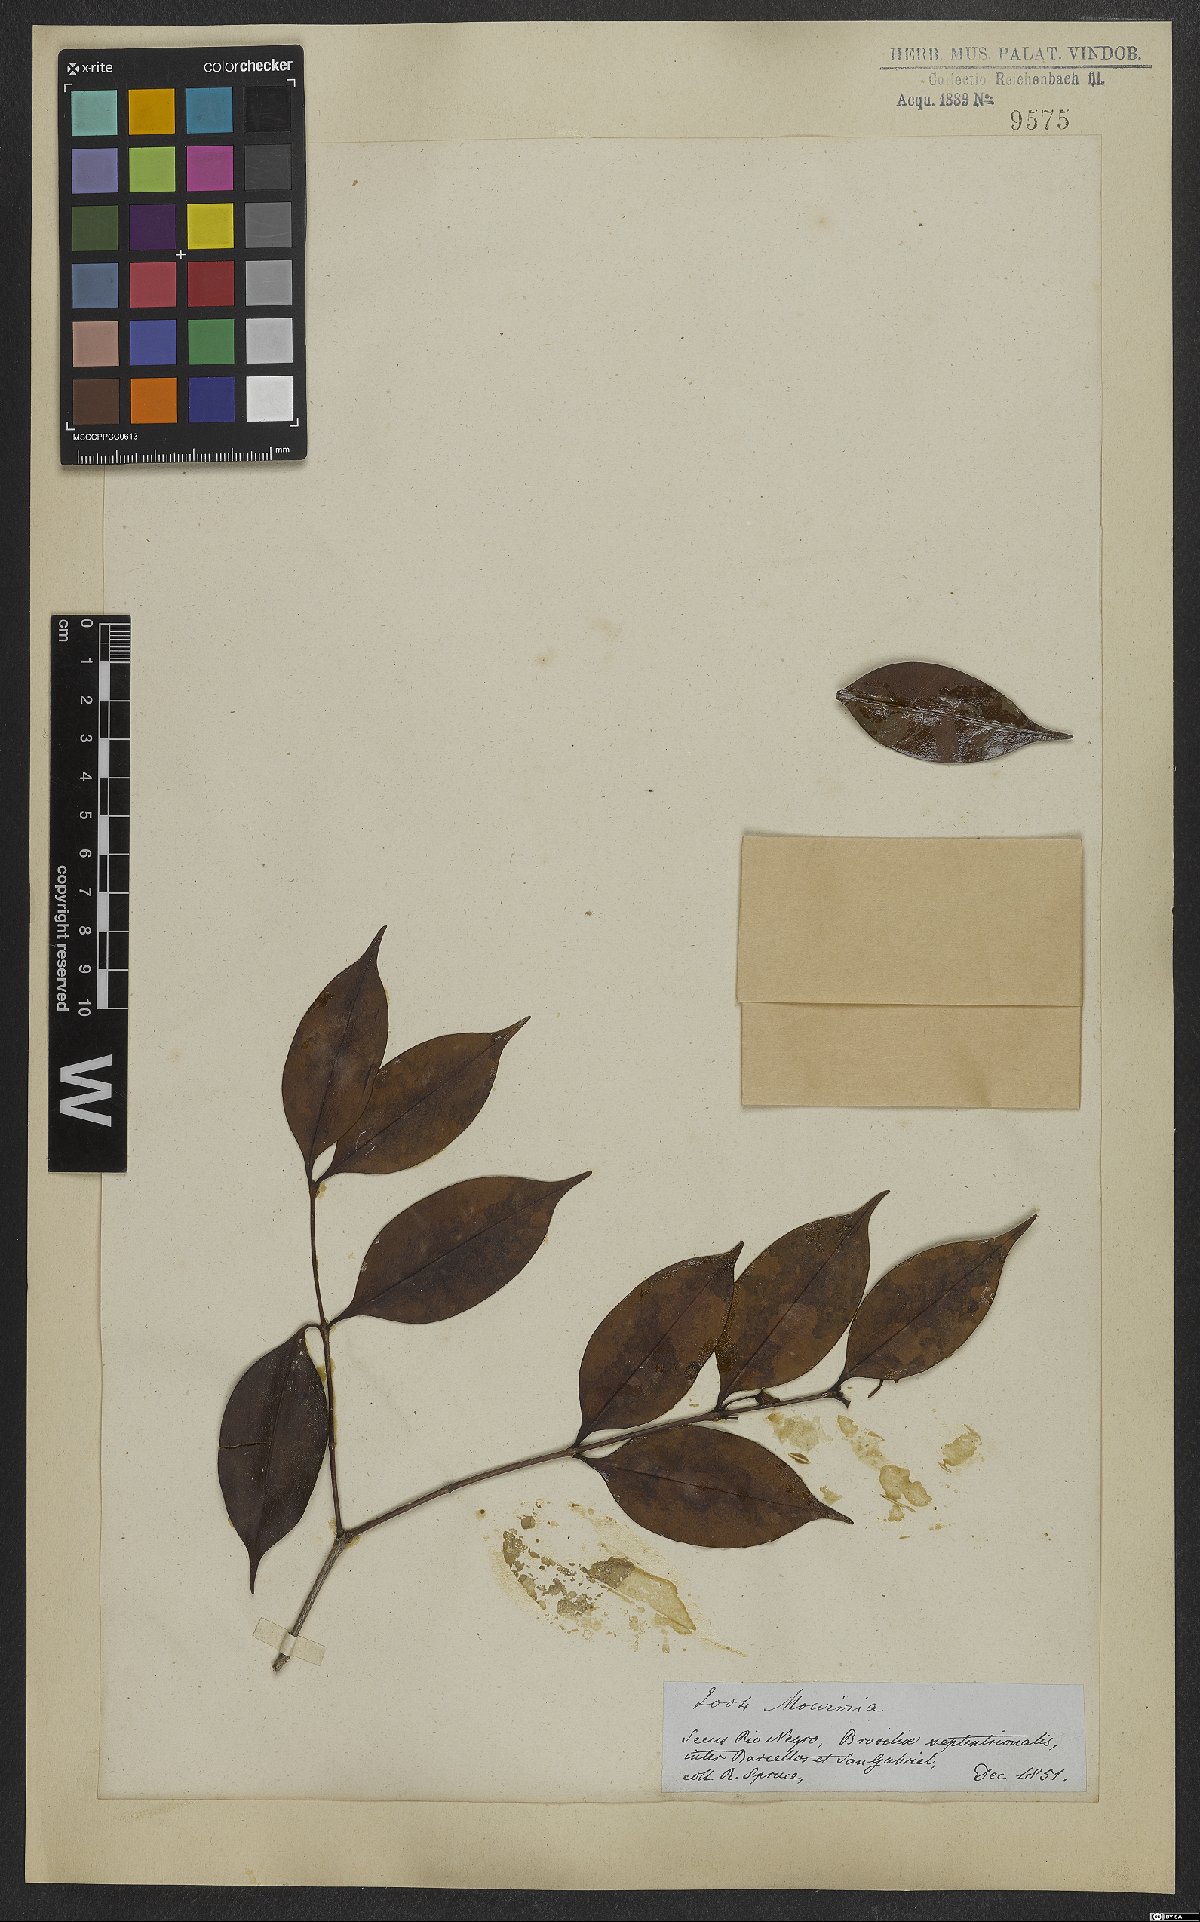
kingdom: Plantae
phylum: Tracheophyta
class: Magnoliopsida
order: Myrtales
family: Melastomataceae
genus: Mouriri
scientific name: Mouriri subumbellata
